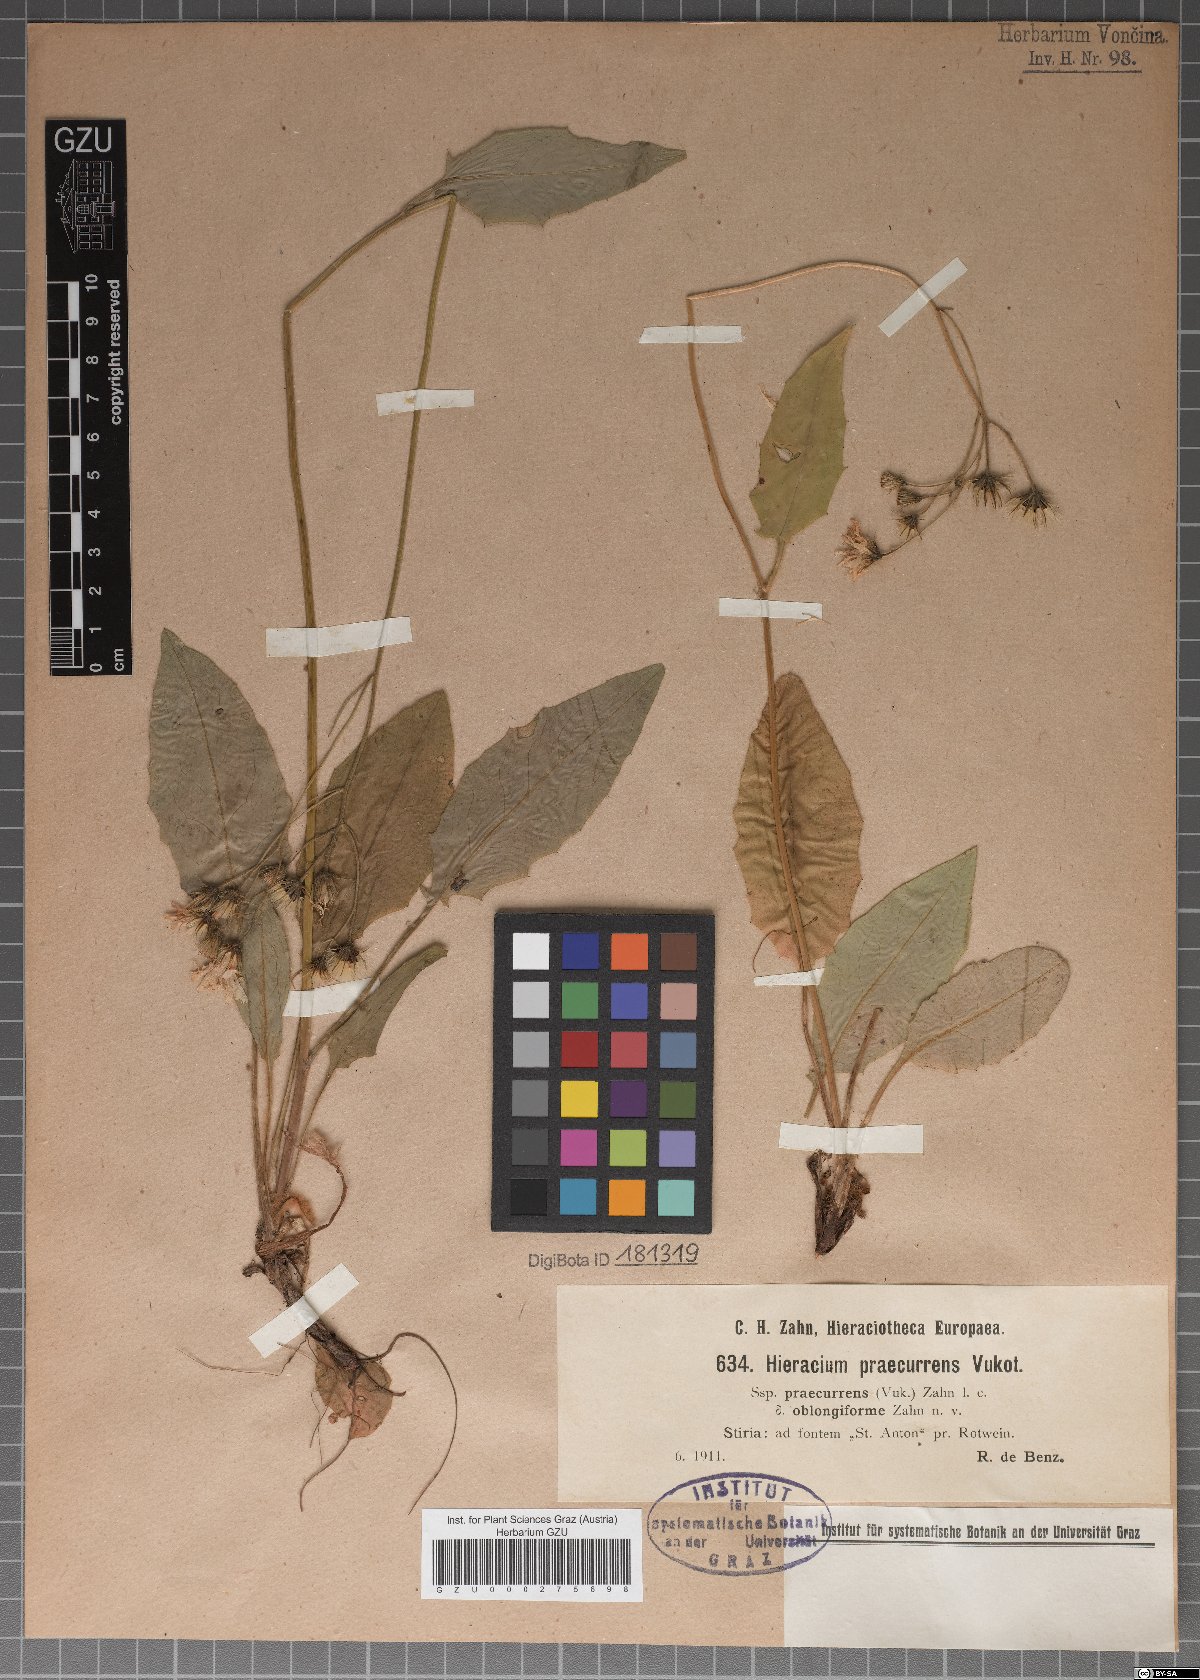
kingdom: Plantae
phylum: Tracheophyta
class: Magnoliopsida
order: Asterales
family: Asteraceae
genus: Hieracium
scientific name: Hieracium rotundatum
